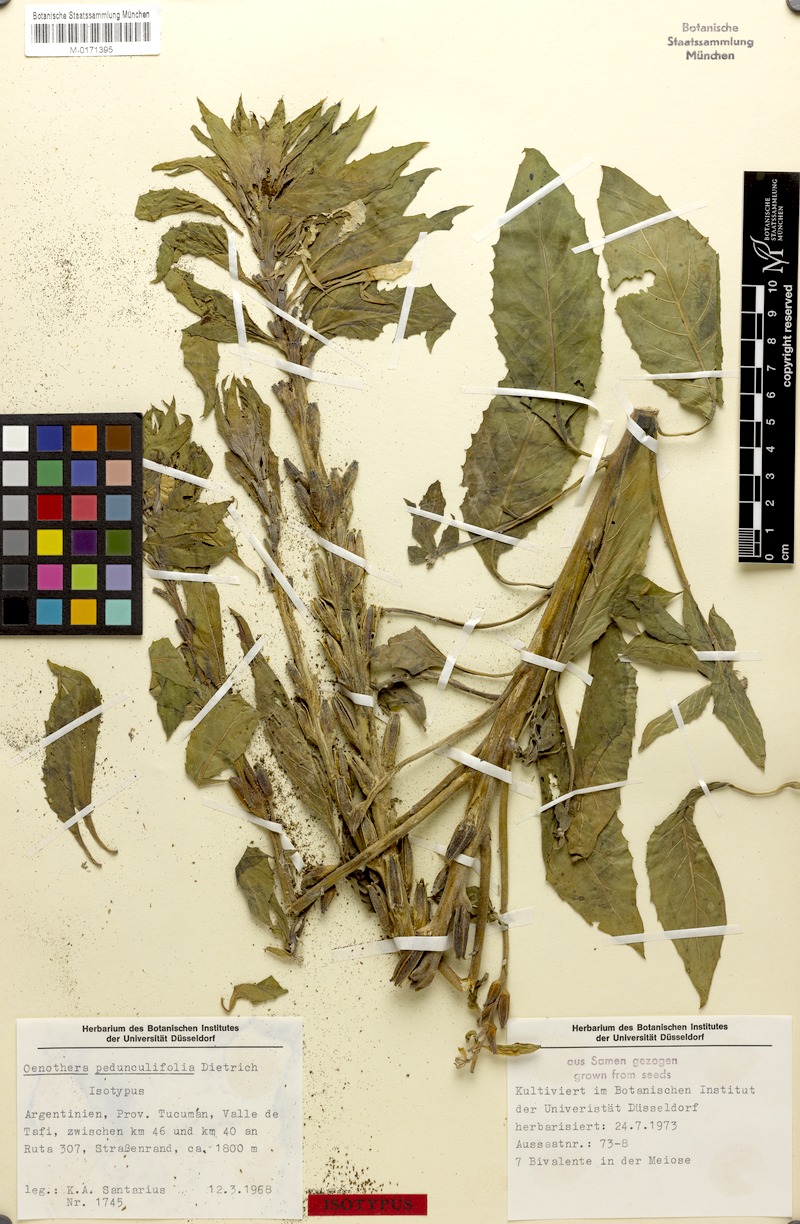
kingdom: Plantae
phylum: Tracheophyta
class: Magnoliopsida
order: Myrtales
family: Onagraceae
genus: Oenothera
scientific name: Oenothera pedunculifolia
